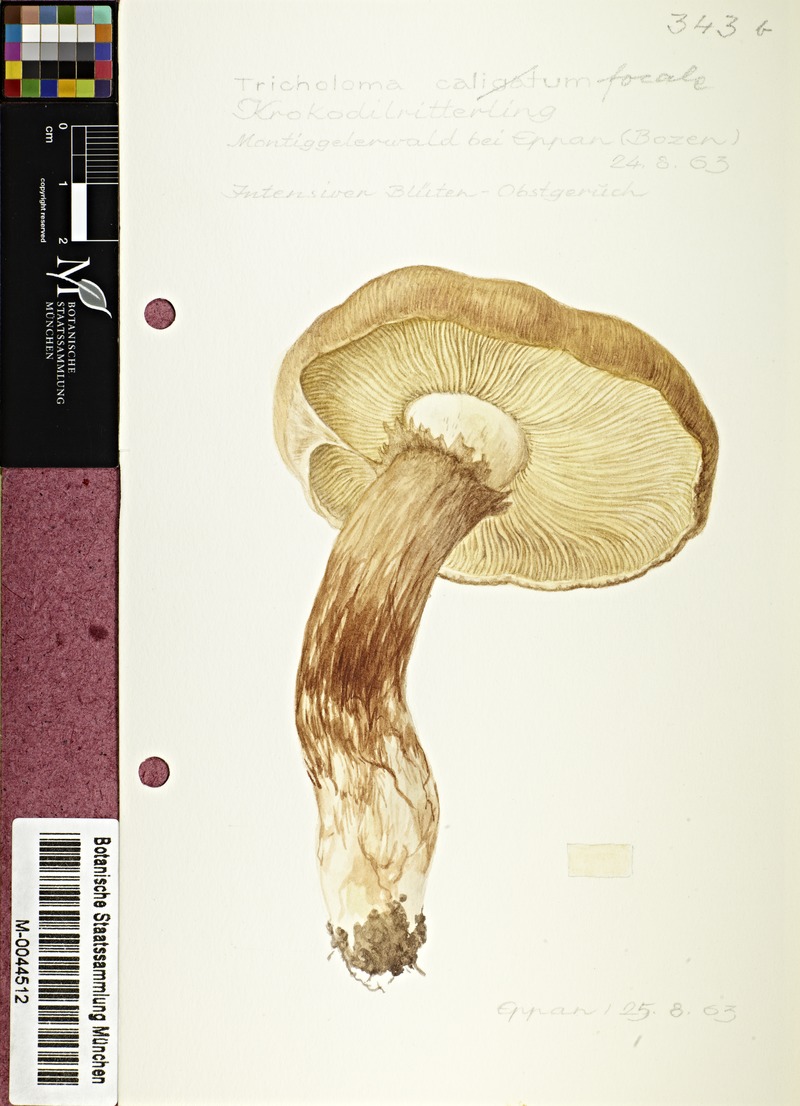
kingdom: Fungi
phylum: Basidiomycota
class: Agaricomycetes
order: Agaricales
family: Tricholomataceae
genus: Tricholoma
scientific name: Tricholoma focale
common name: Booted knight
